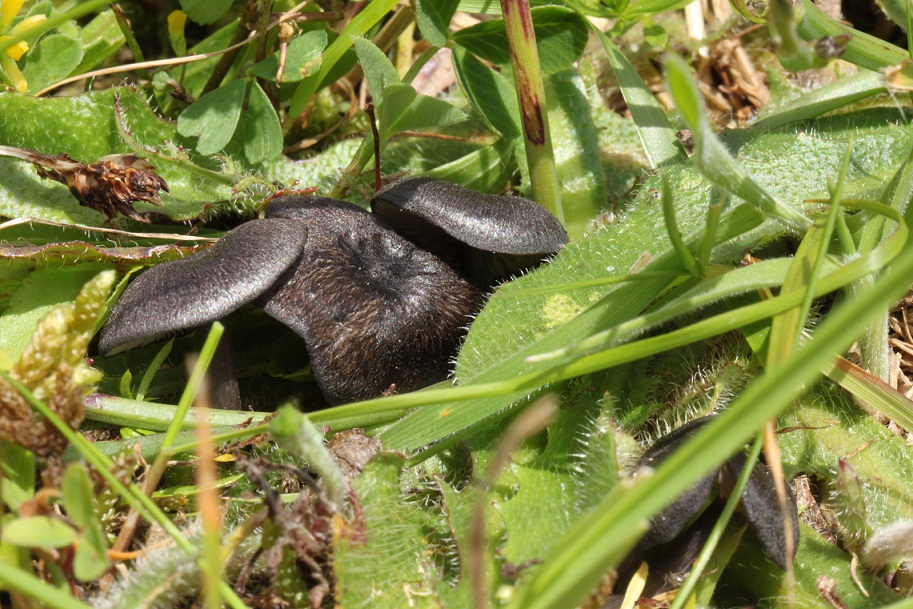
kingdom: Fungi
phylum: Basidiomycota
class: Agaricomycetes
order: Agaricales
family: Entolomataceae
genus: Entoloma
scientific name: Entoloma atrocoeruleum
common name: sortblå rødblad
